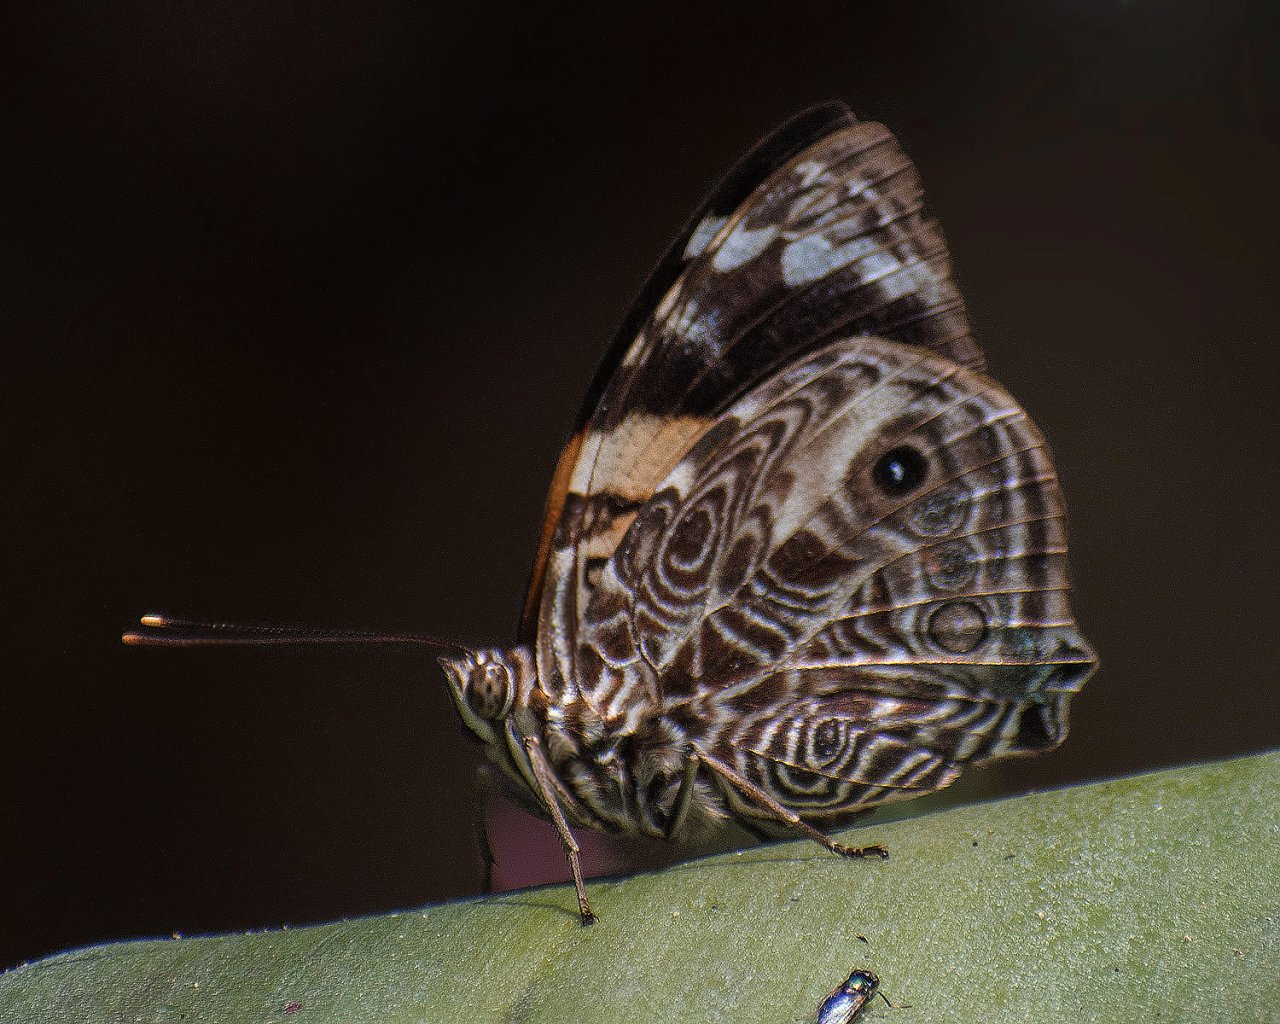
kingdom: Animalia
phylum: Arthropoda
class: Insecta
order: Lepidoptera
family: Nymphalidae
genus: Smyrna
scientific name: Smyrna blomfildia
